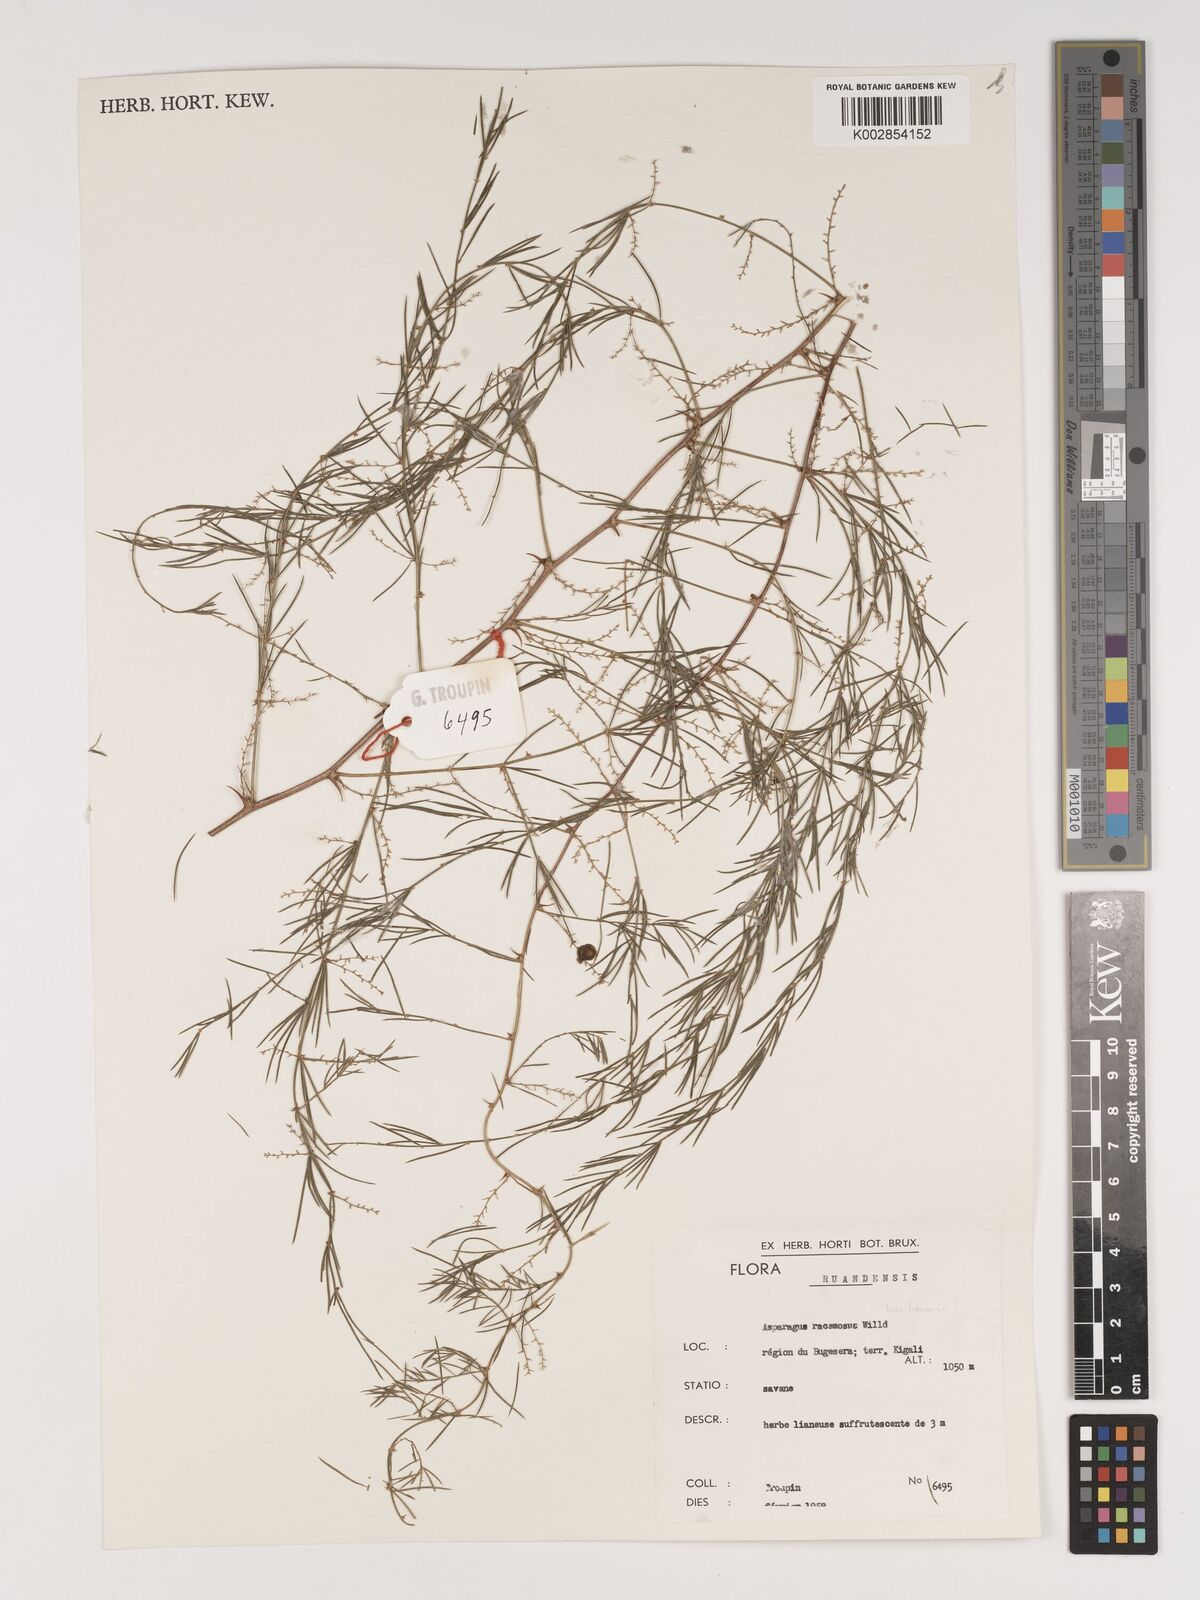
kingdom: Plantae
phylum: Tracheophyta
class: Liliopsida
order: Asparagales
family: Asparagaceae
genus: Asparagus
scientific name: Asparagus racemosus
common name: Asparagus-fern
